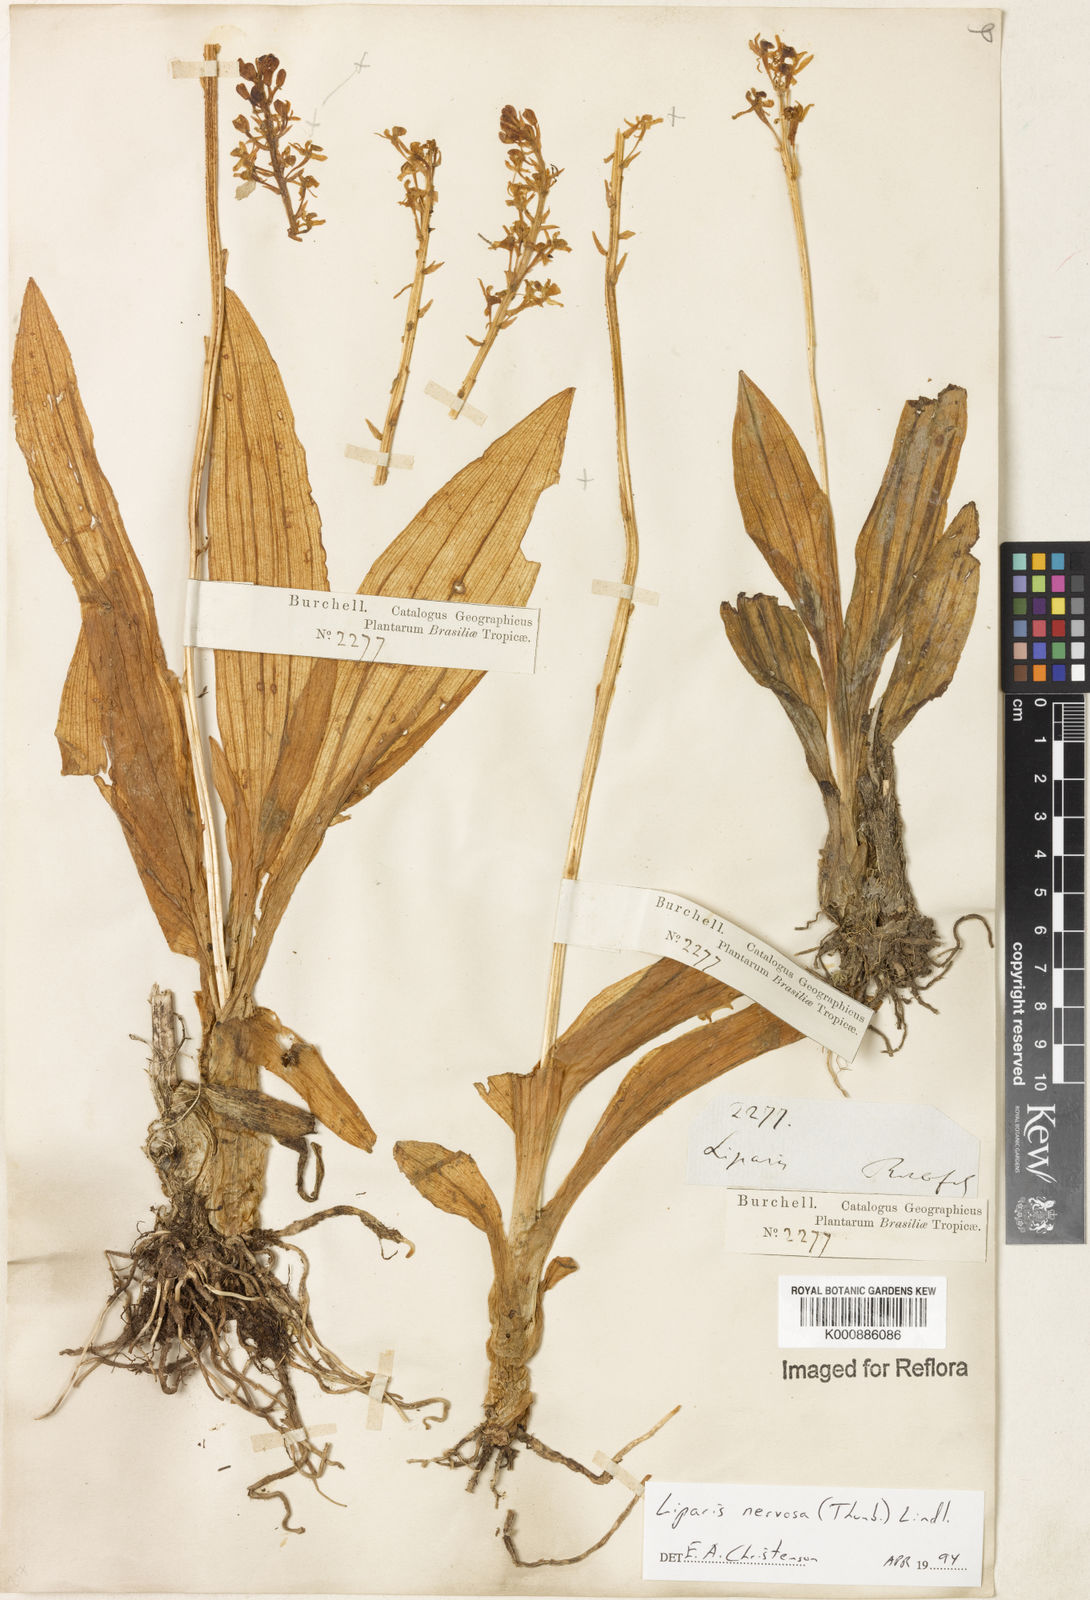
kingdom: Plantae
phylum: Tracheophyta
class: Liliopsida
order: Asparagales
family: Orchidaceae
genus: Liparis
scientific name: Liparis nervosa
